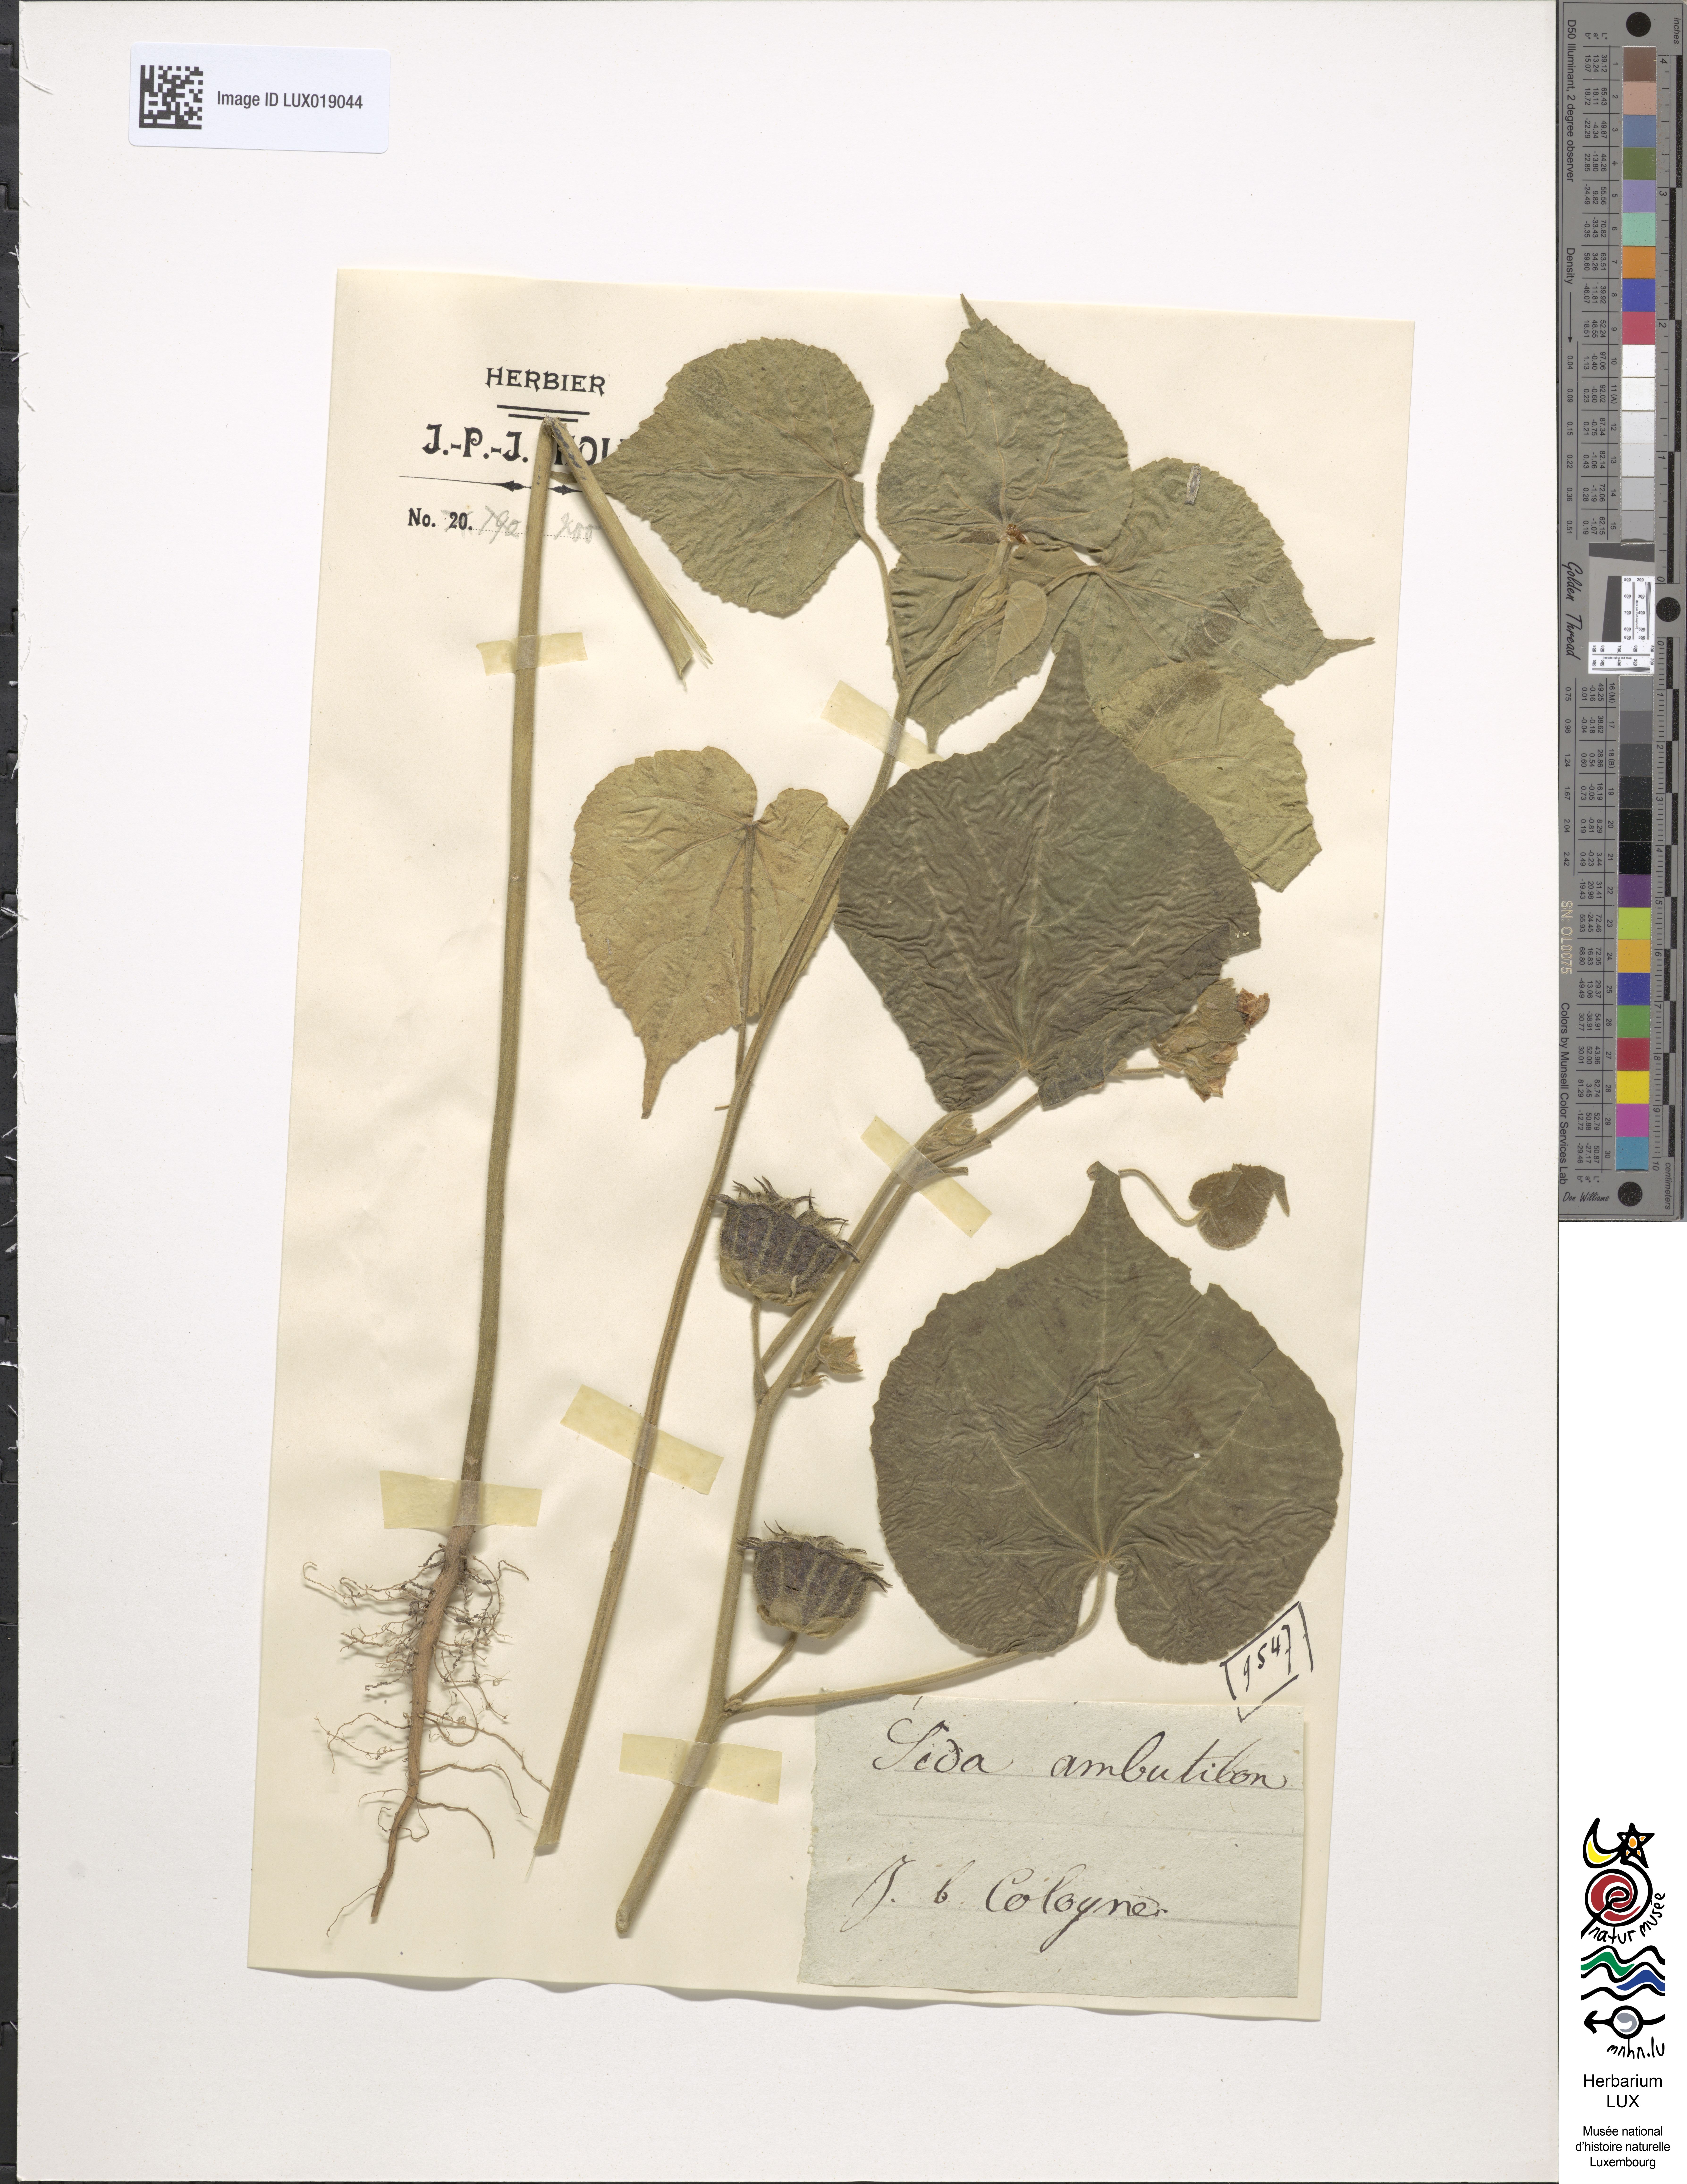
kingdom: Plantae
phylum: Tracheophyta
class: Magnoliopsida
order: Malvales
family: Malvaceae
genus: Abutilon
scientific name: Abutilon theophrasti
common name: Velvetleaf
